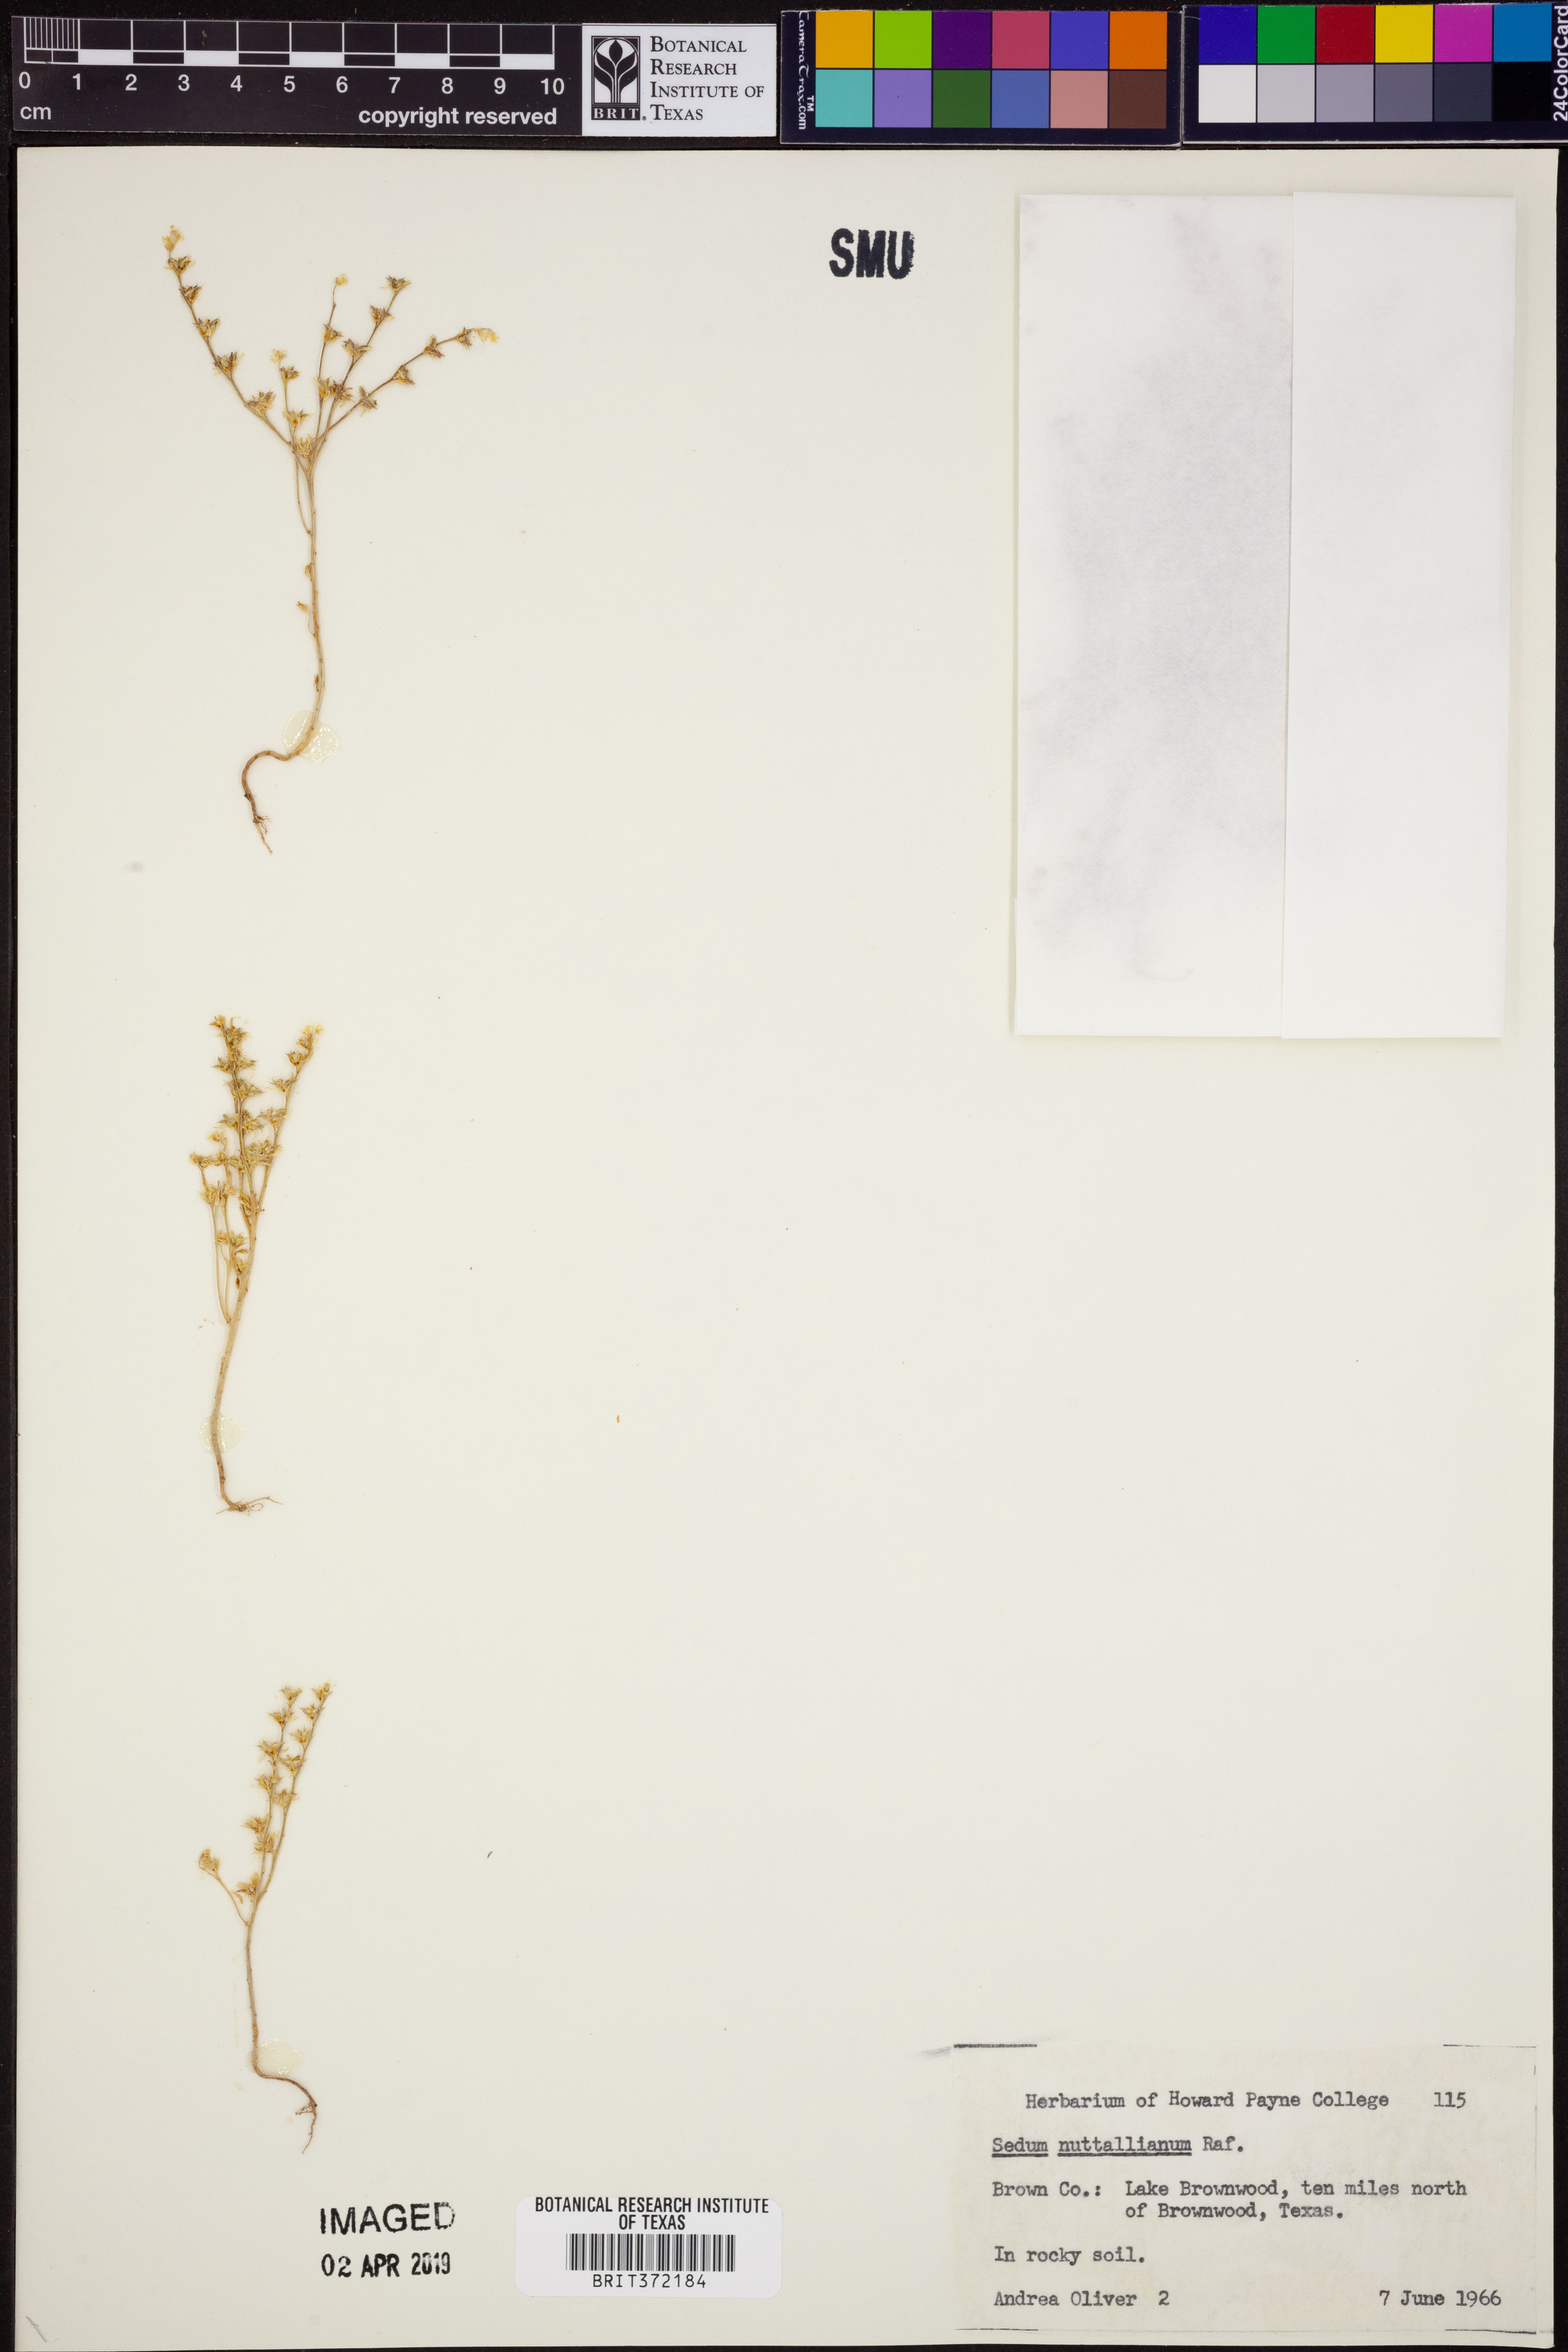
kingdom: Plantae
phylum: Tracheophyta
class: Magnoliopsida
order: Saxifragales
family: Crassulaceae
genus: Sedum
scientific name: Sedum nuttallii
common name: Yellow stonecrop
